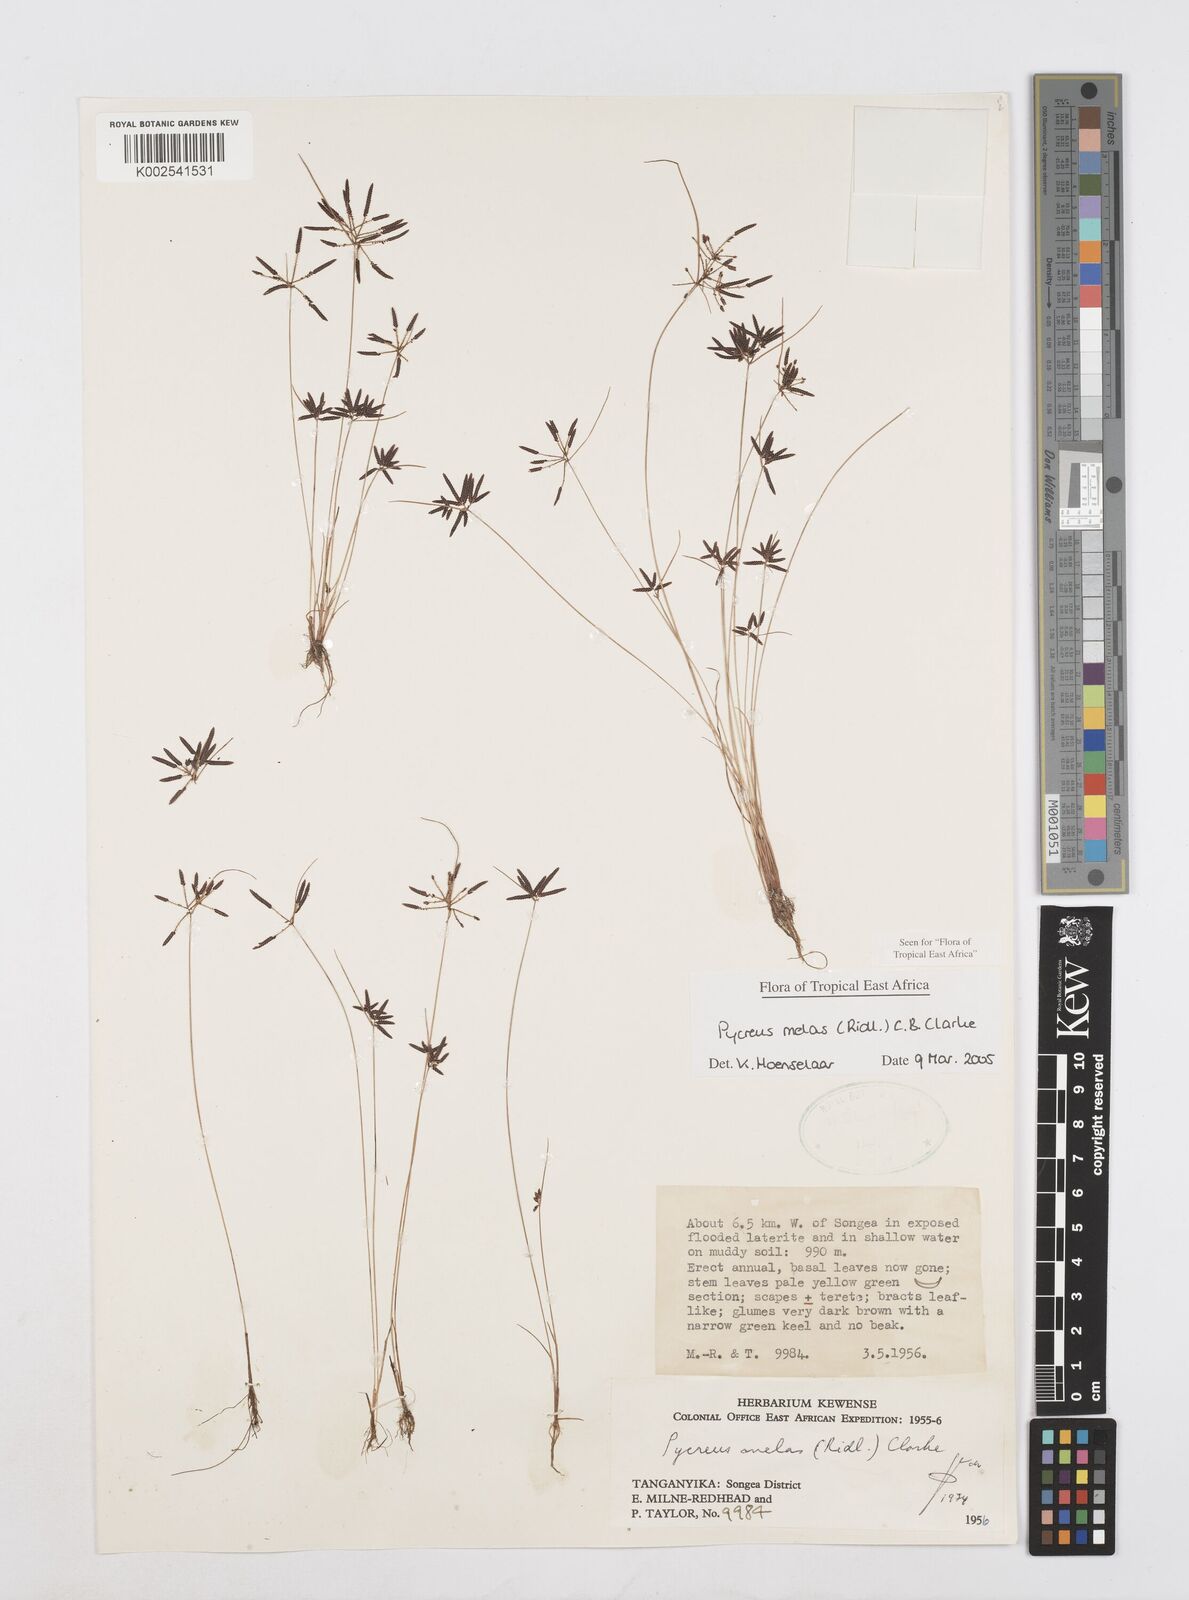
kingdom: Plantae
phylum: Tracheophyta
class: Liliopsida
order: Poales
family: Cyperaceae
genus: Cyperus
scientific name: Cyperus melas
